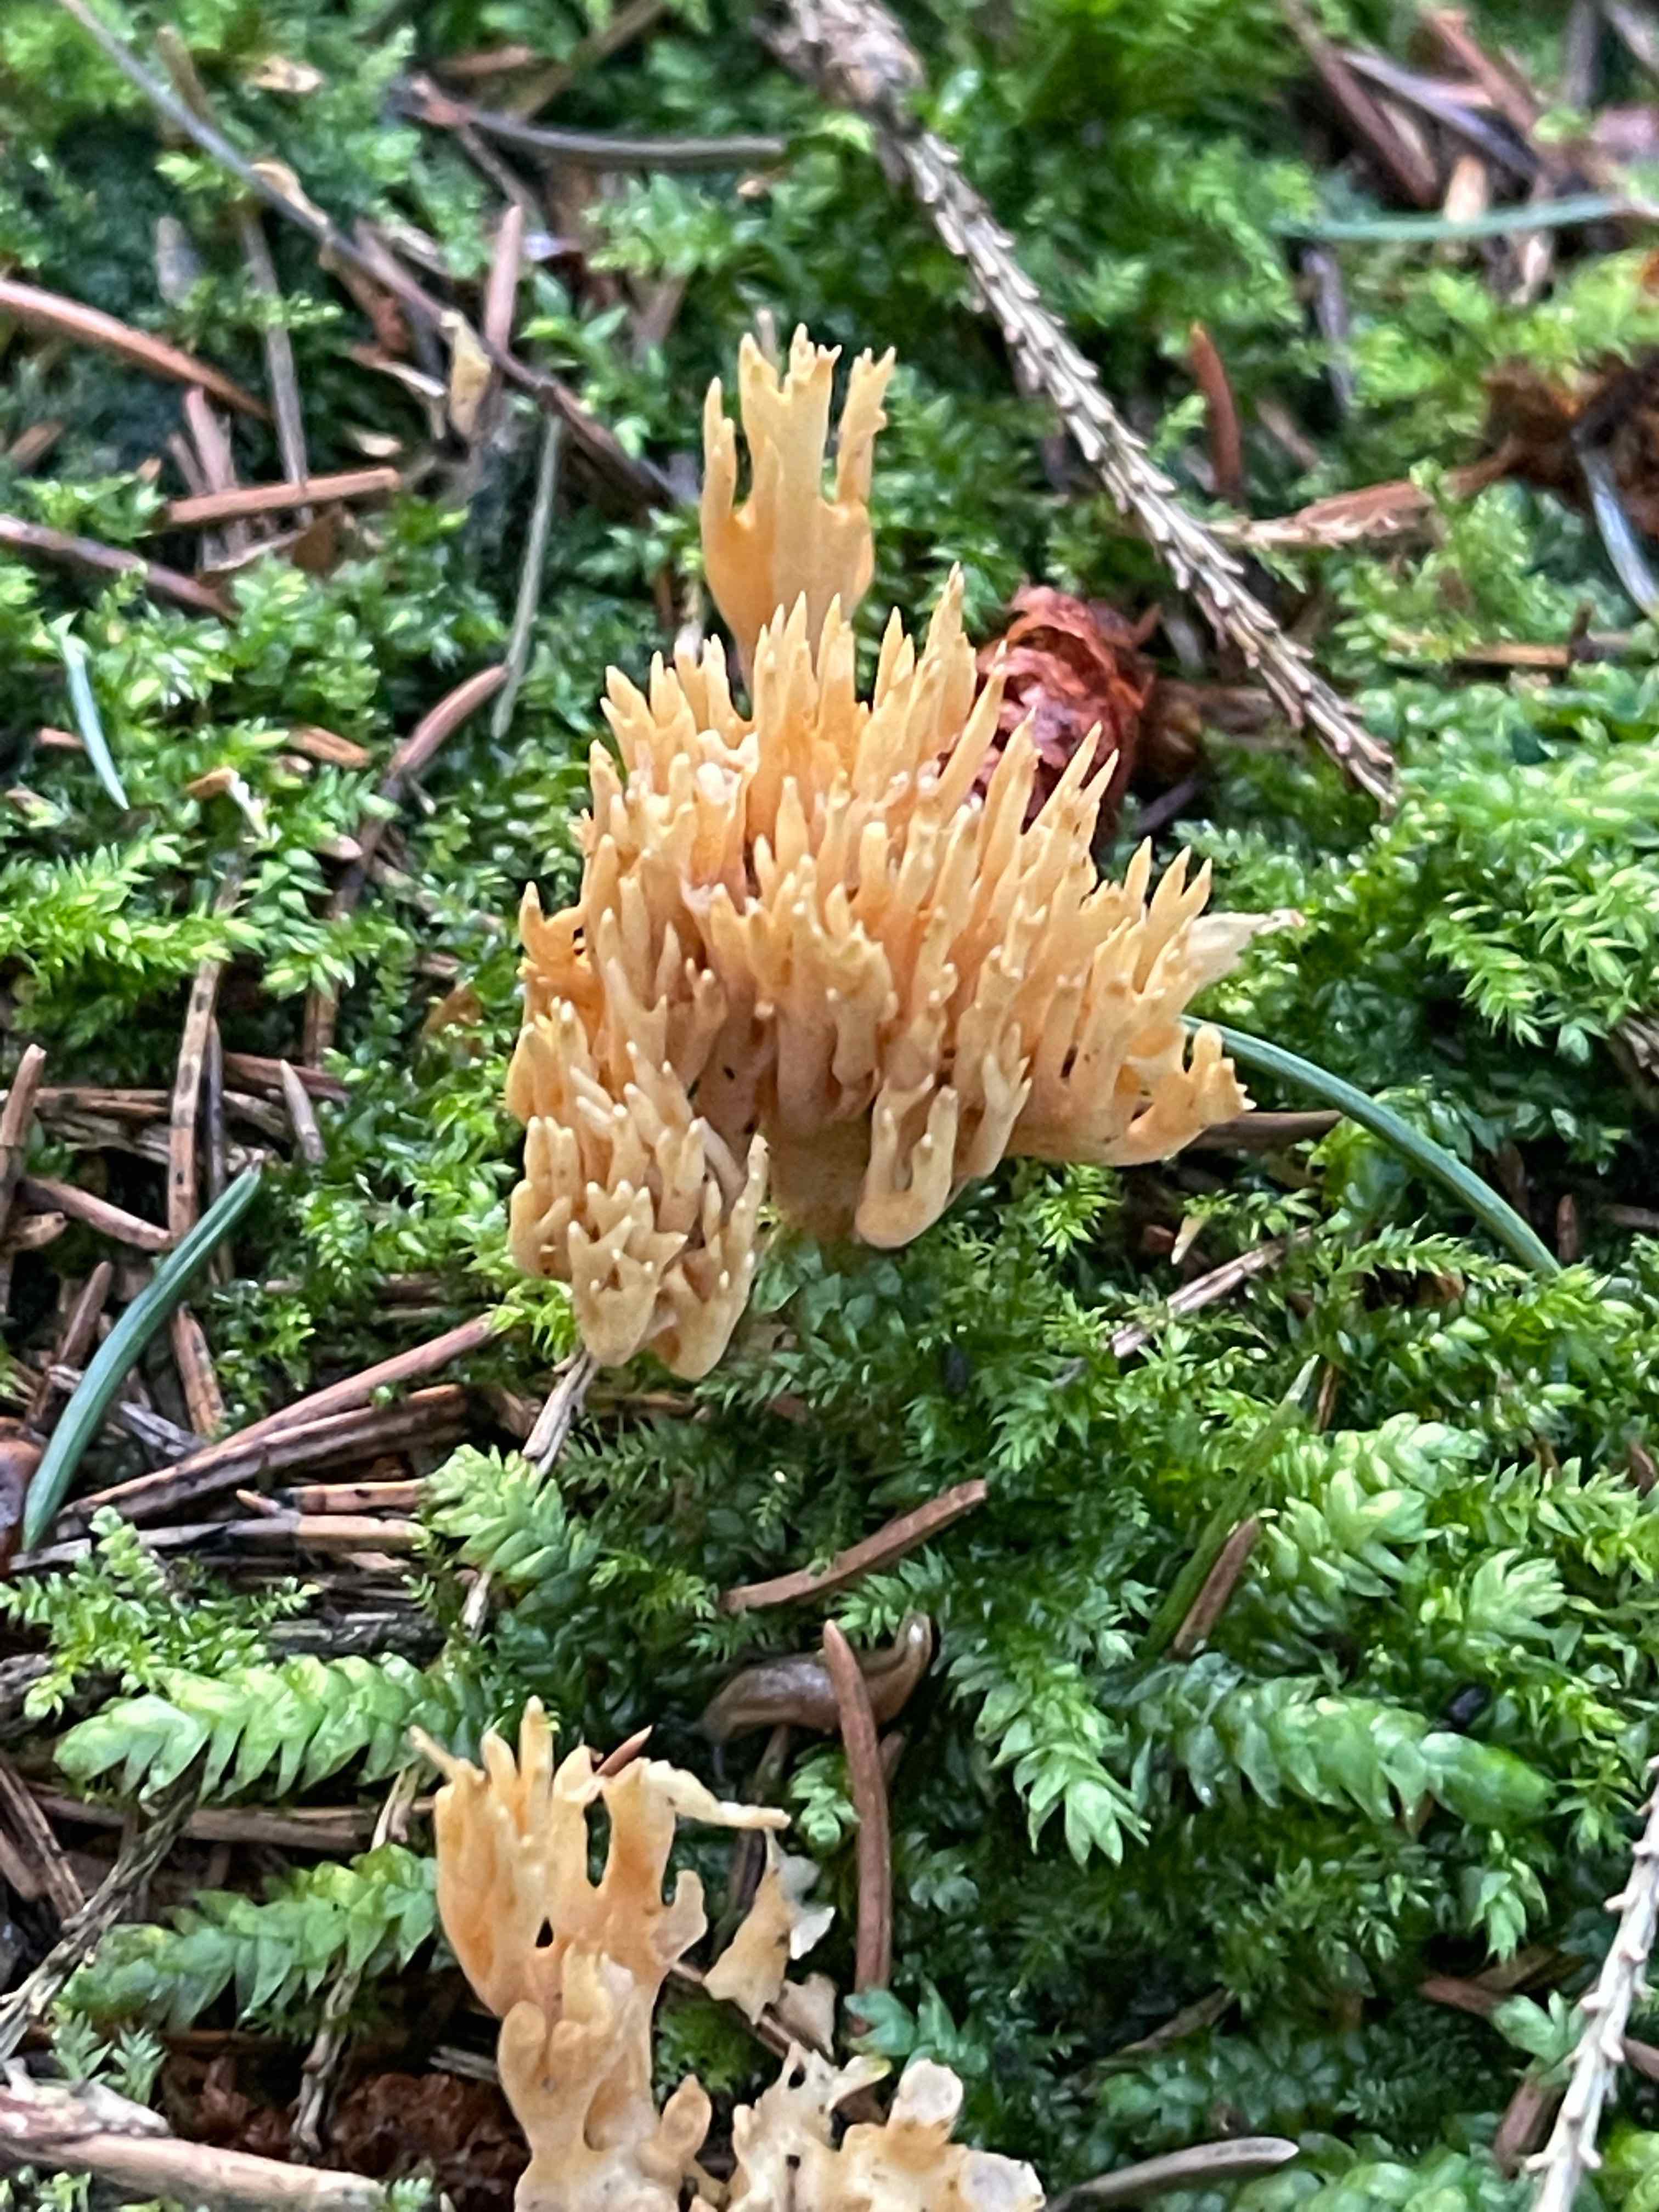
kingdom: Fungi
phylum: Basidiomycota
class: Agaricomycetes
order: Gomphales
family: Gomphaceae
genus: Phaeoclavulina
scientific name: Phaeoclavulina eumorpha
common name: gran-koralsvamp
